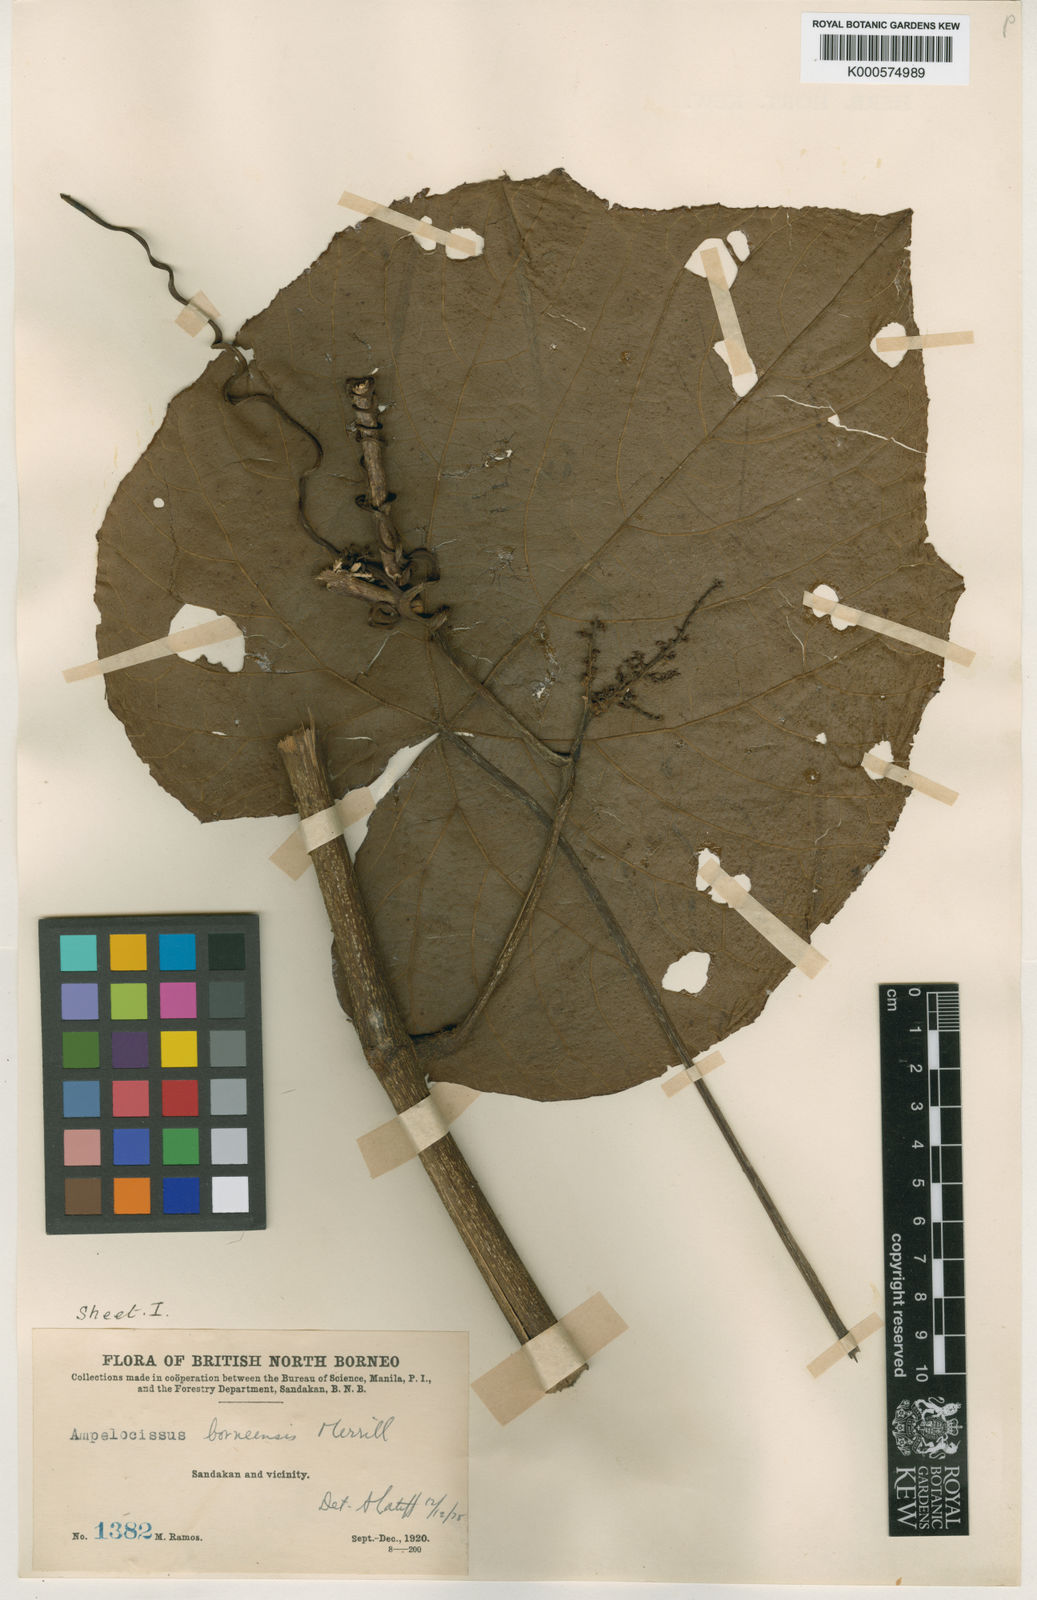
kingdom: Plantae
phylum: Tracheophyta
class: Magnoliopsida
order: Vitales
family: Vitaceae
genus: Ampelocissus
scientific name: Ampelocissus borneensis
